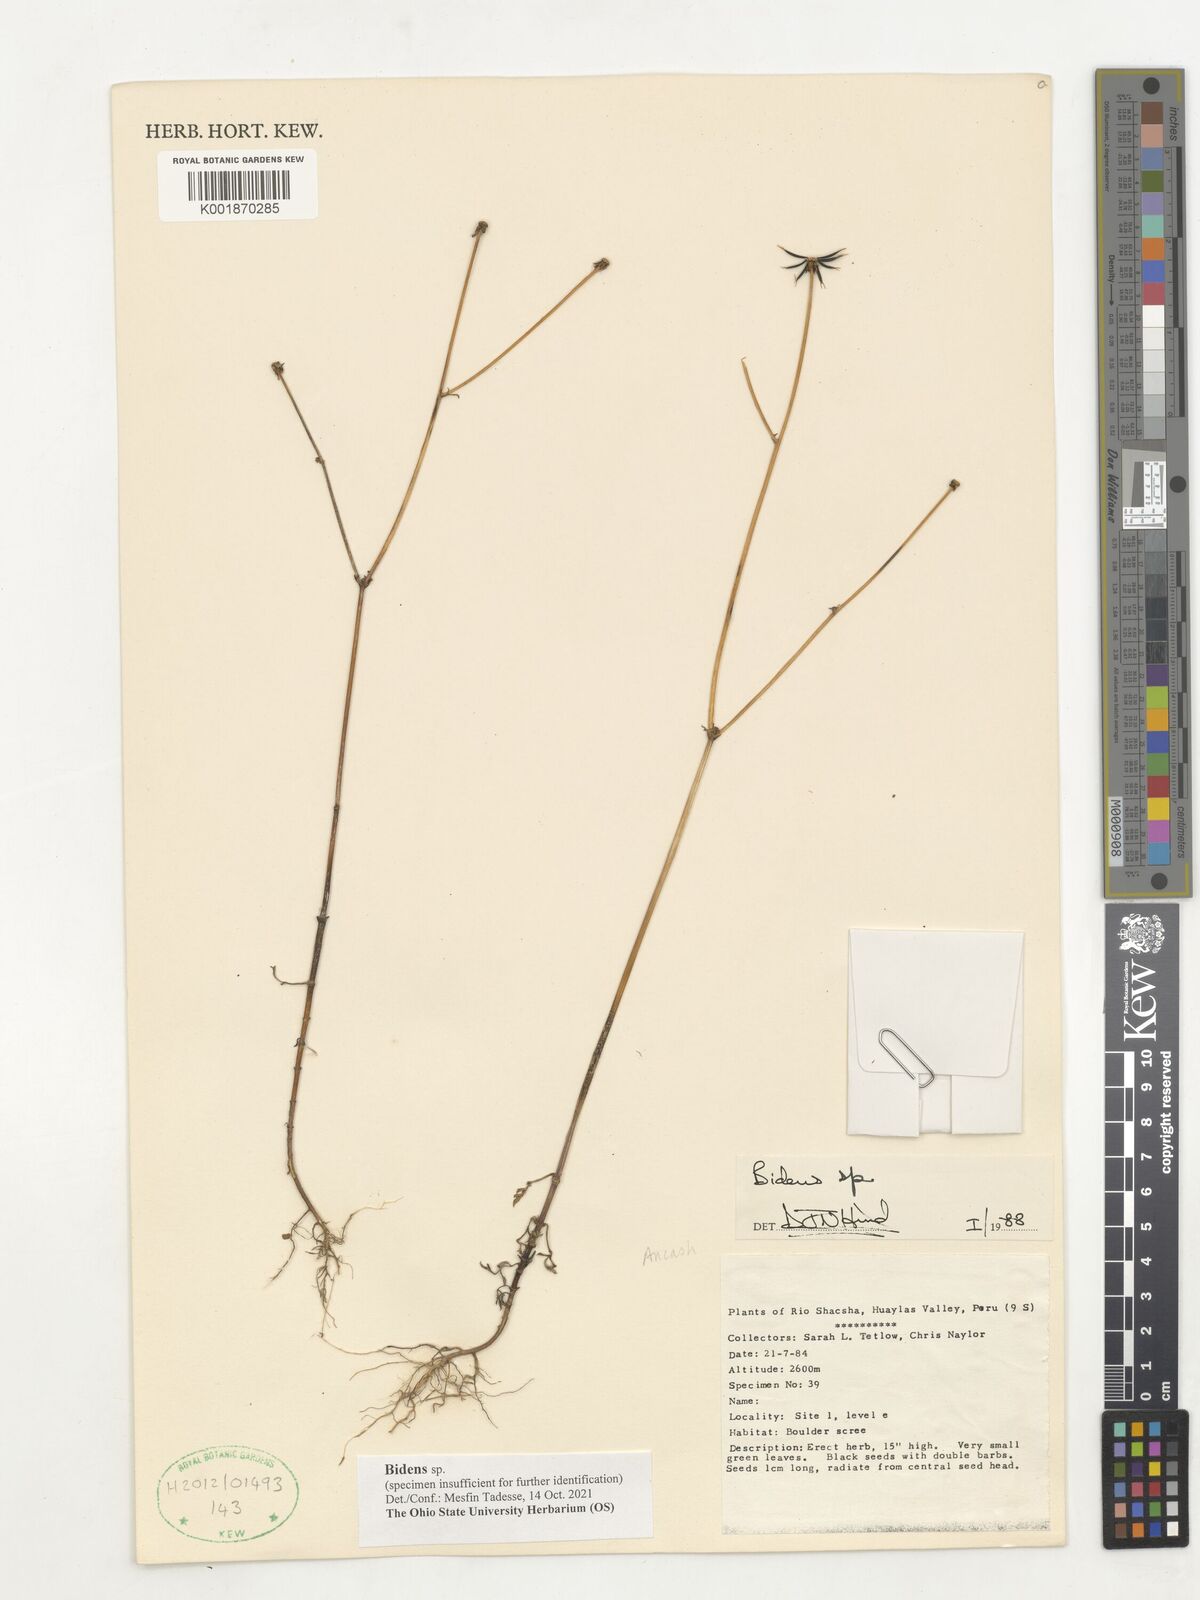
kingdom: Plantae
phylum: Tracheophyta
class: Magnoliopsida
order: Asterales
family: Asteraceae
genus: Bidens
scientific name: Bidens
